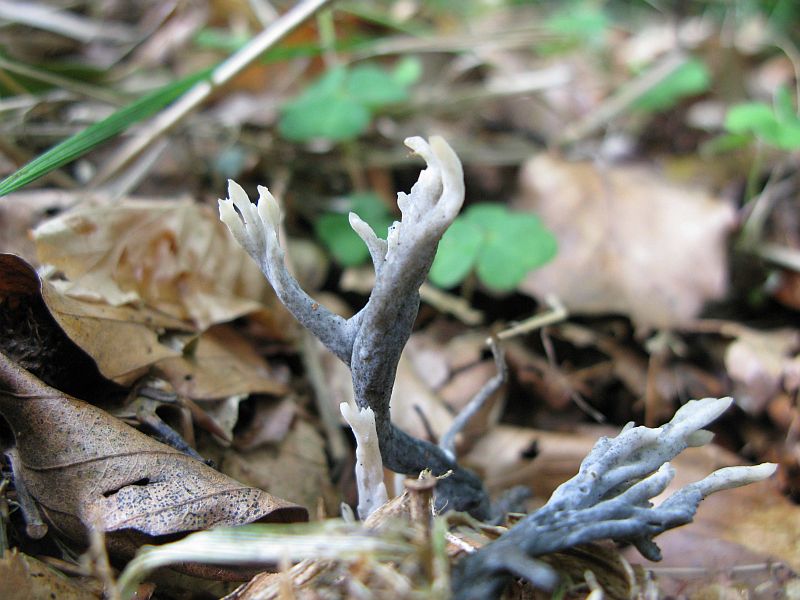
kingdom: Fungi
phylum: Ascomycota
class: Sordariomycetes
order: Sordariales
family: Helminthosphaeriaceae
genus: Helminthosphaeria
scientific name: Helminthosphaeria clavariarum
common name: trold-svampesnyltekerne
